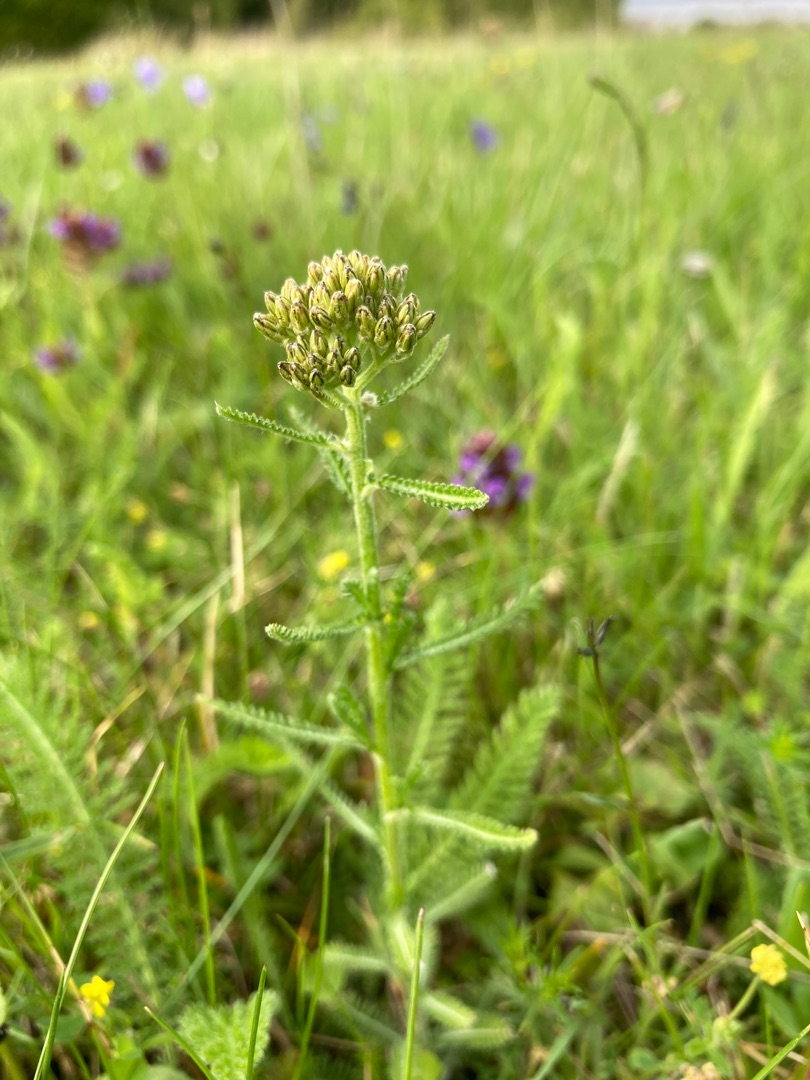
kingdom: Plantae
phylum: Tracheophyta
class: Magnoliopsida
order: Asterales
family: Asteraceae
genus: Achillea
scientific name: Achillea millefolium
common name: Almindelig røllike
